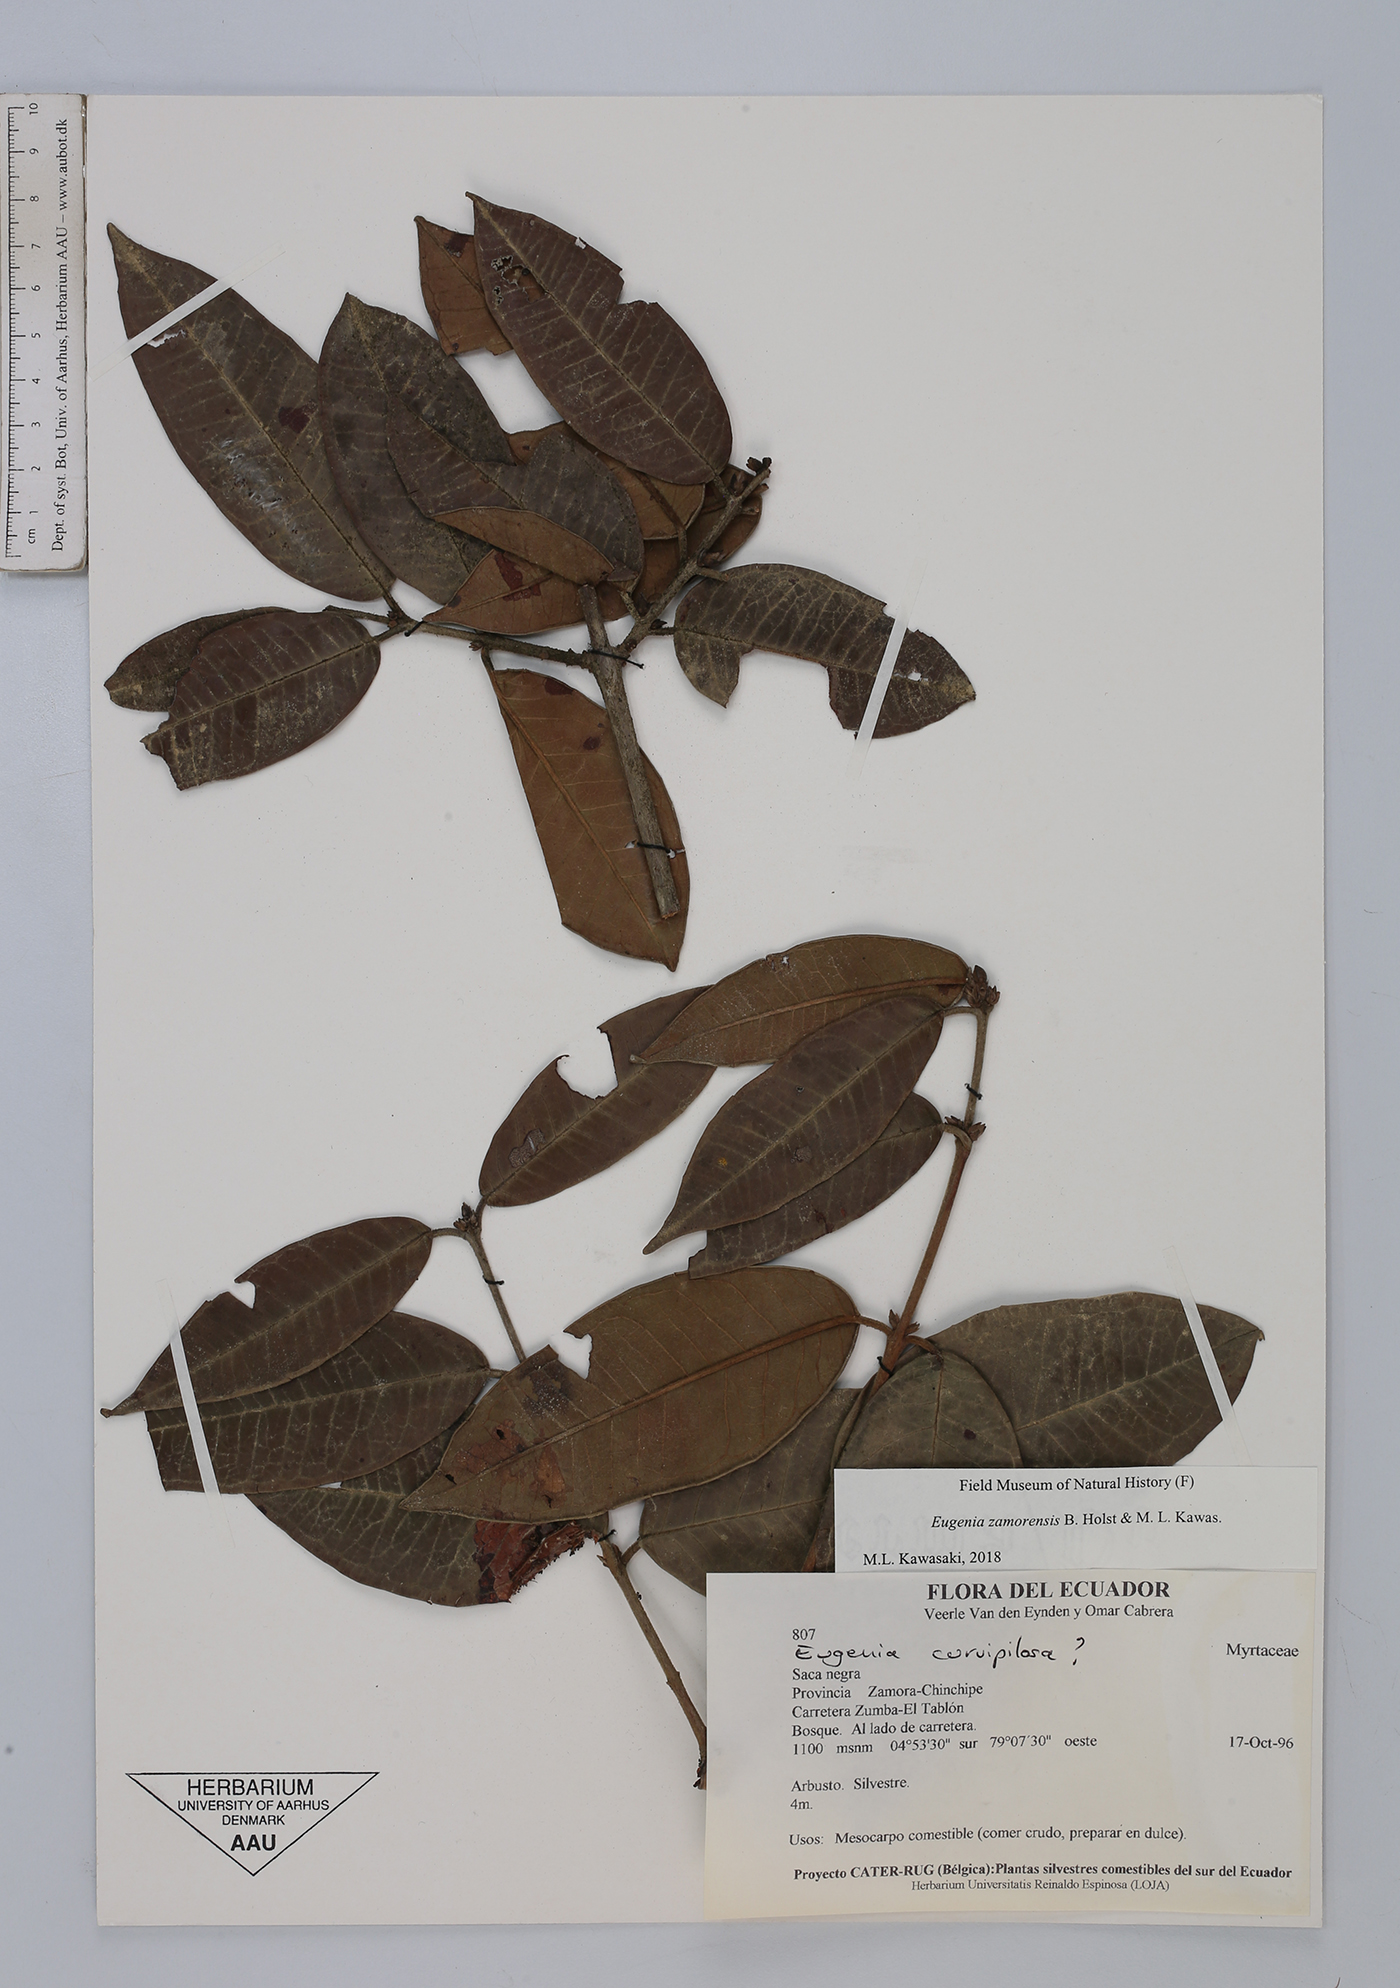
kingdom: Plantae
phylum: Tracheophyta
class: Magnoliopsida
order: Myrtales
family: Myrtaceae
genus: Eugenia
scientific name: Eugenia zamorensis
